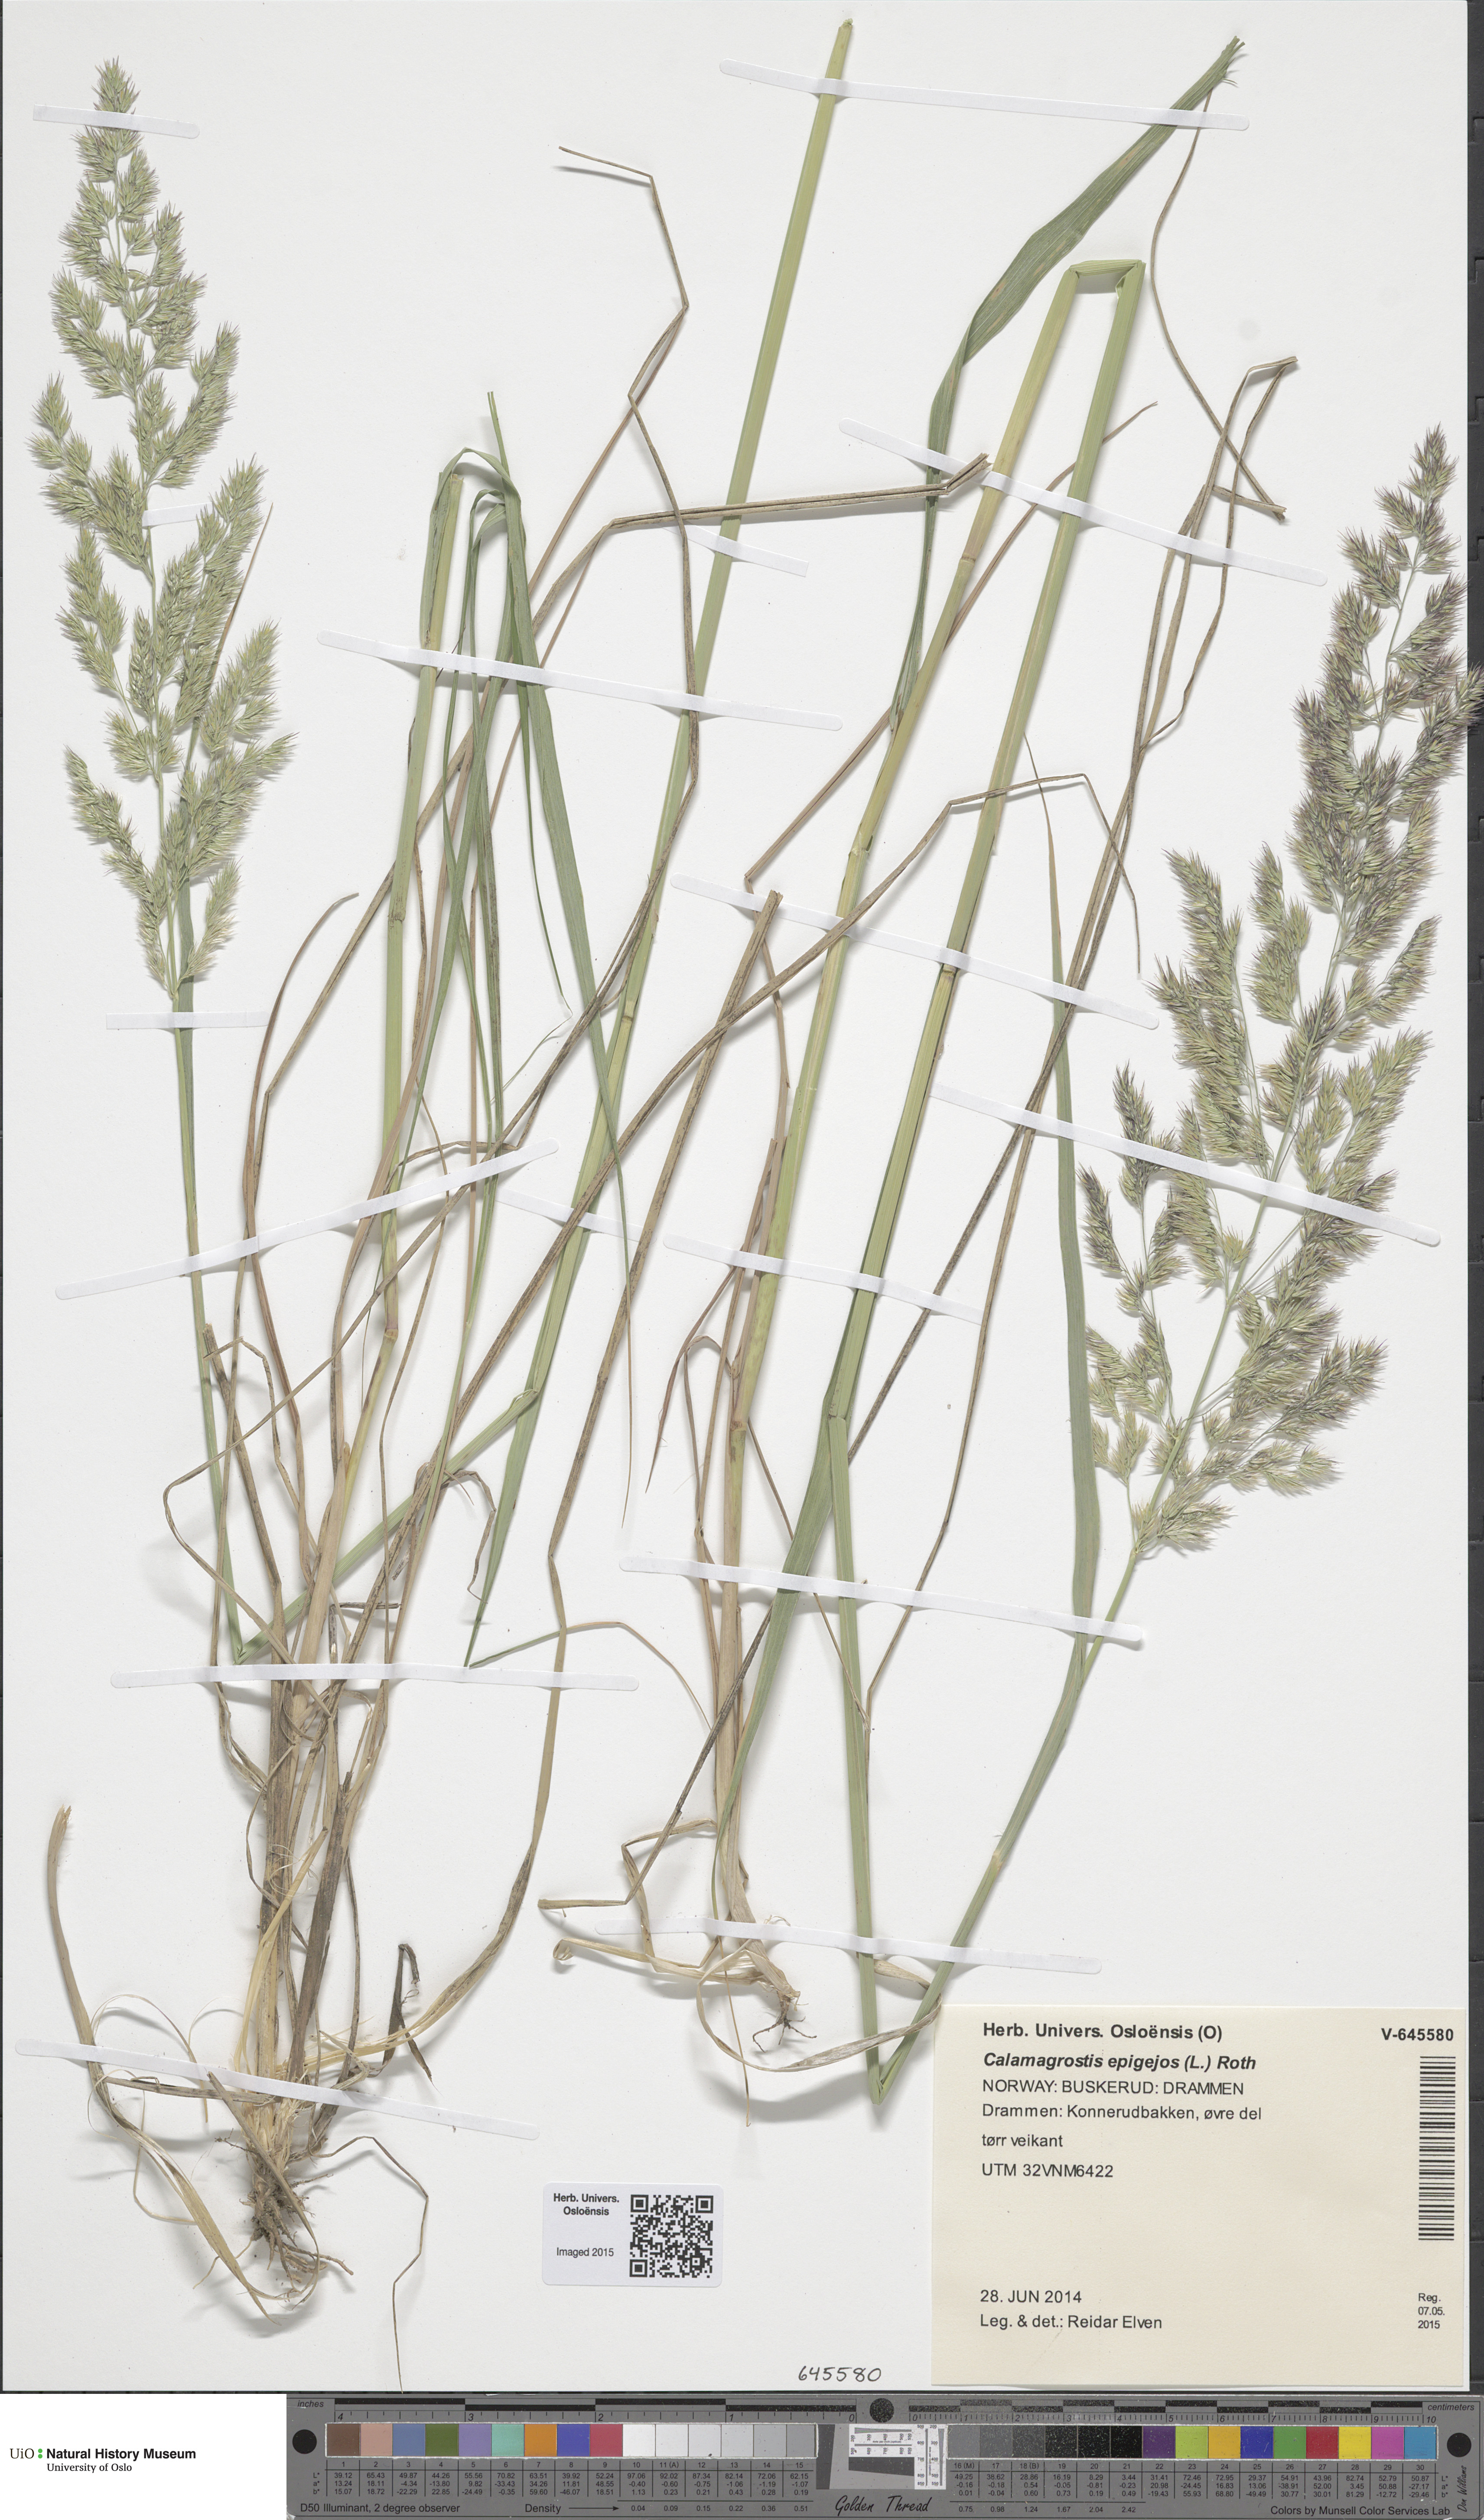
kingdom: Plantae
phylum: Tracheophyta
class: Liliopsida
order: Poales
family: Poaceae
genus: Calamagrostis
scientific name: Calamagrostis epigejos
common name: Wood small-reed
